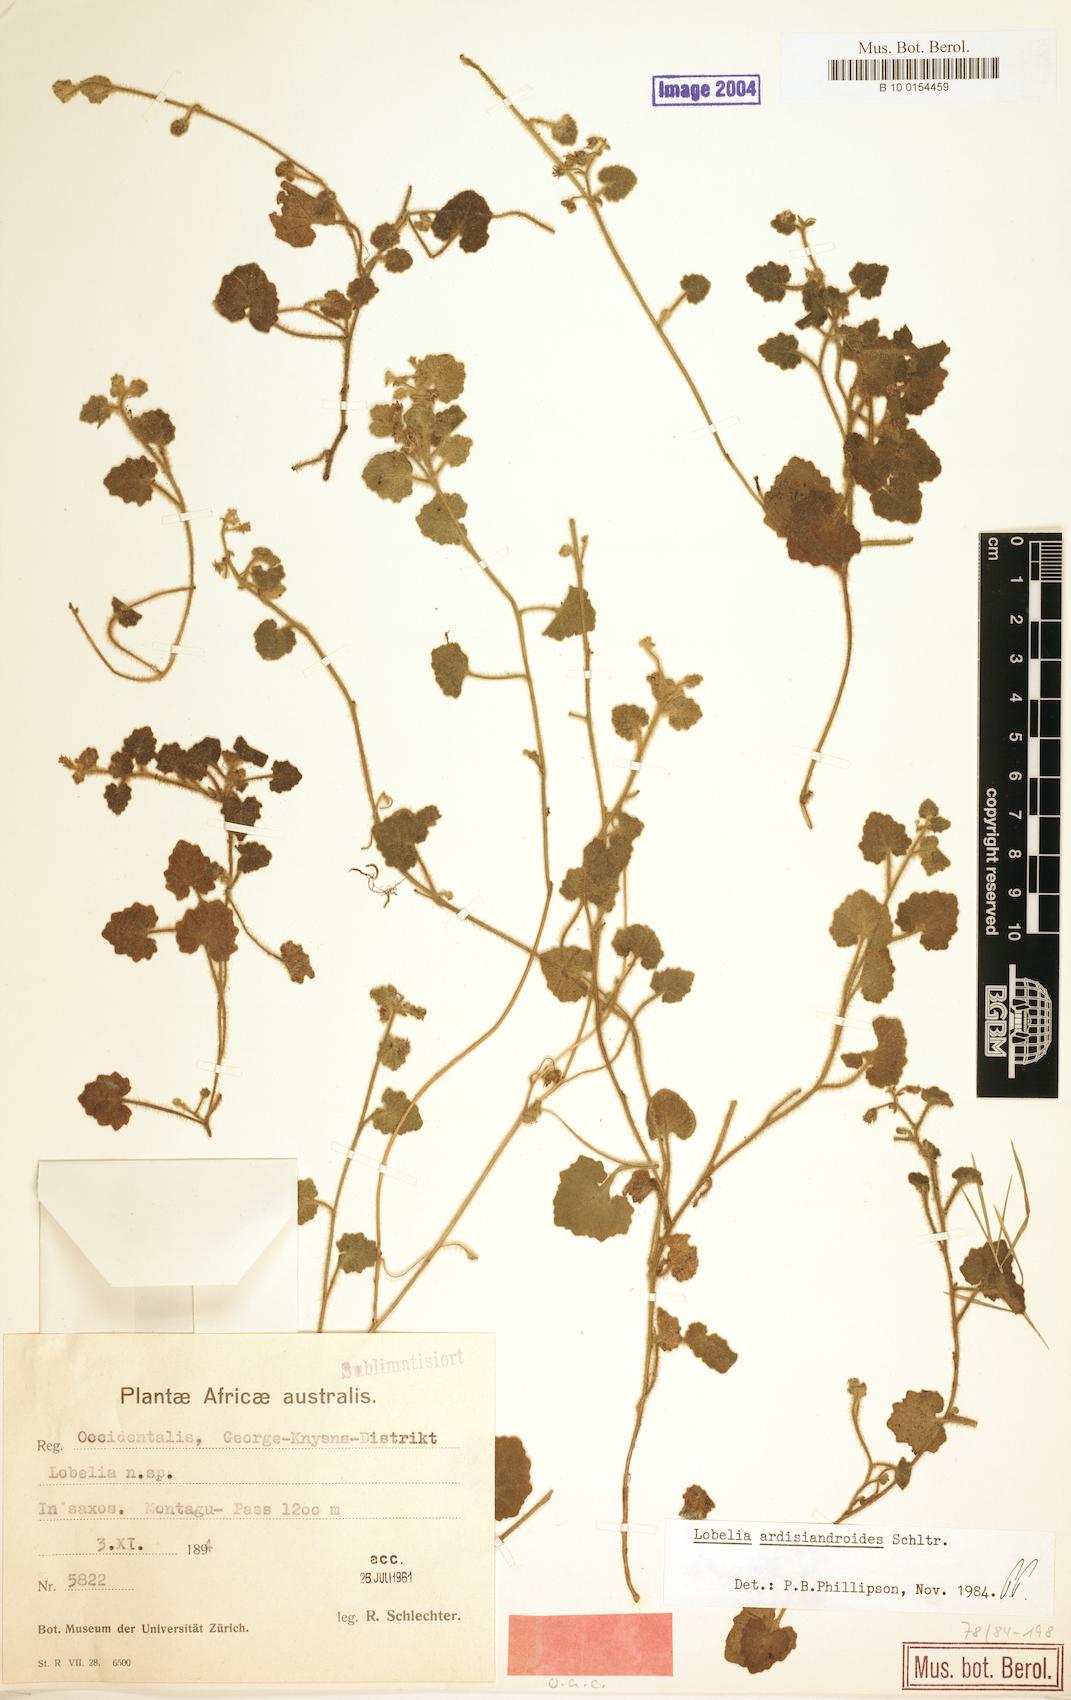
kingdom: Plantae
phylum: Tracheophyta
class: Magnoliopsida
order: Asterales
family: Campanulaceae
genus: Lobelia
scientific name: Lobelia ardisiandroides
